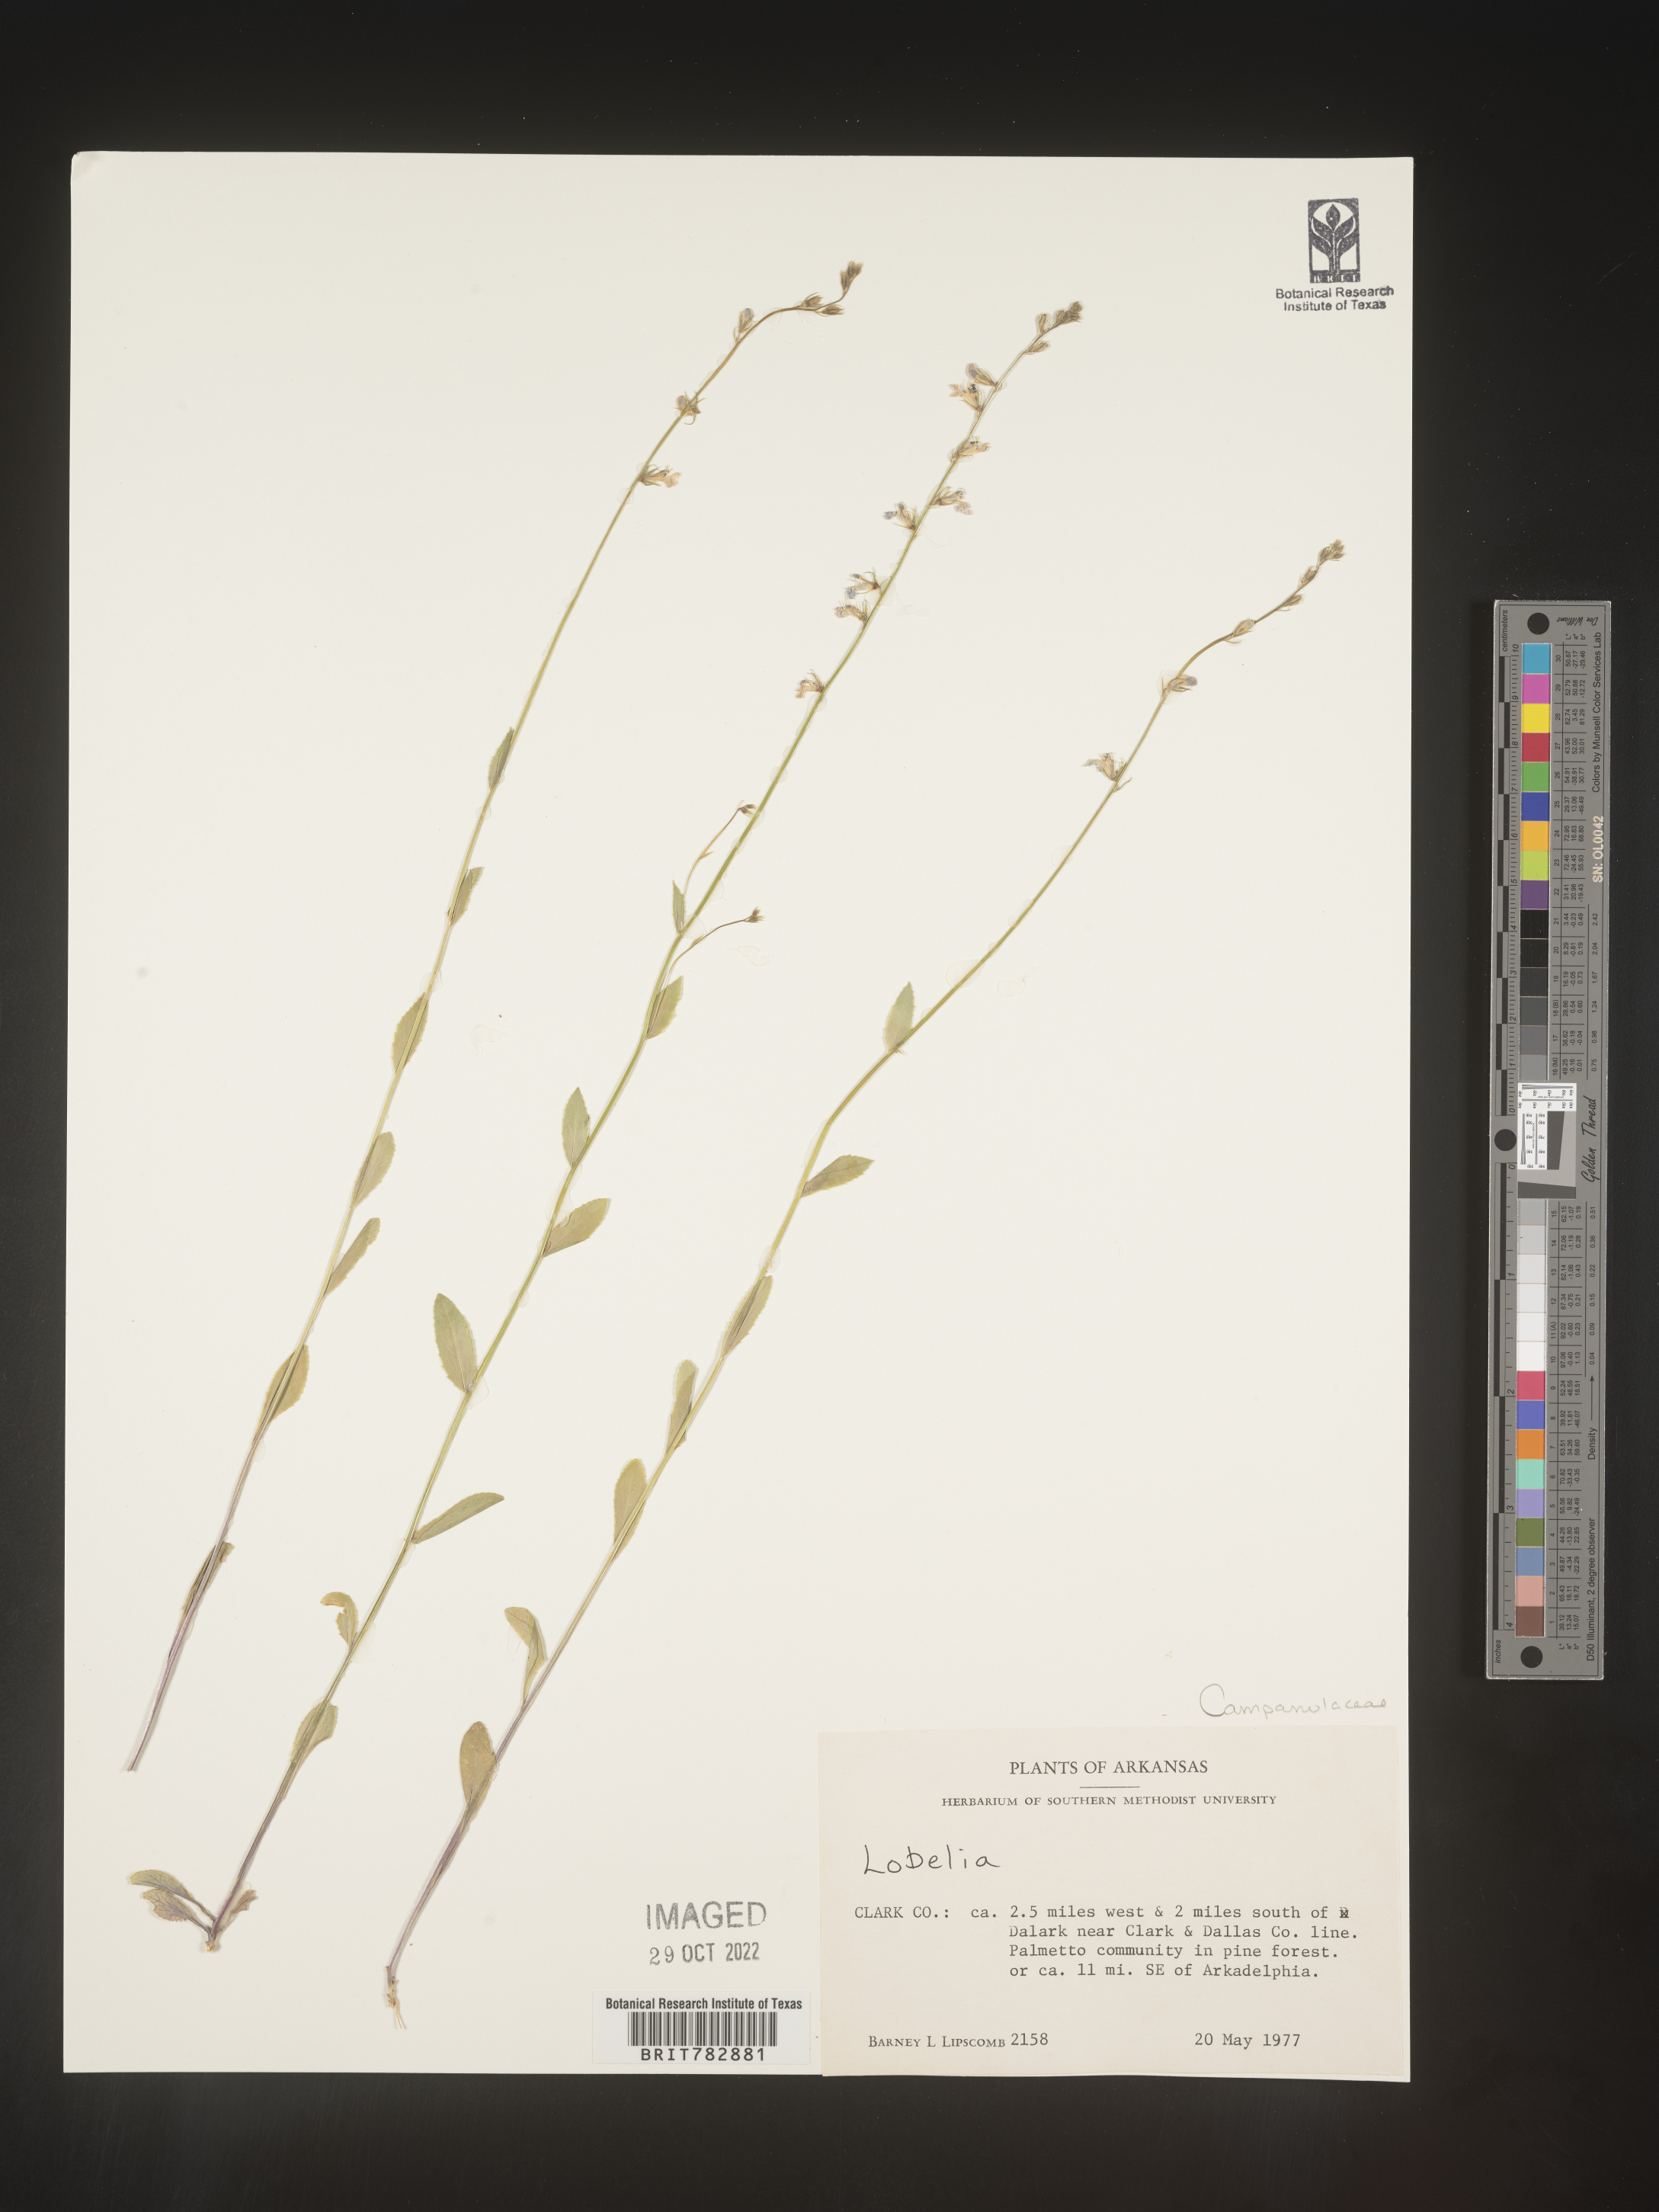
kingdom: Plantae
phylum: Tracheophyta
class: Magnoliopsida
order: Asterales
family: Campanulaceae
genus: Lobelia
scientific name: Lobelia
